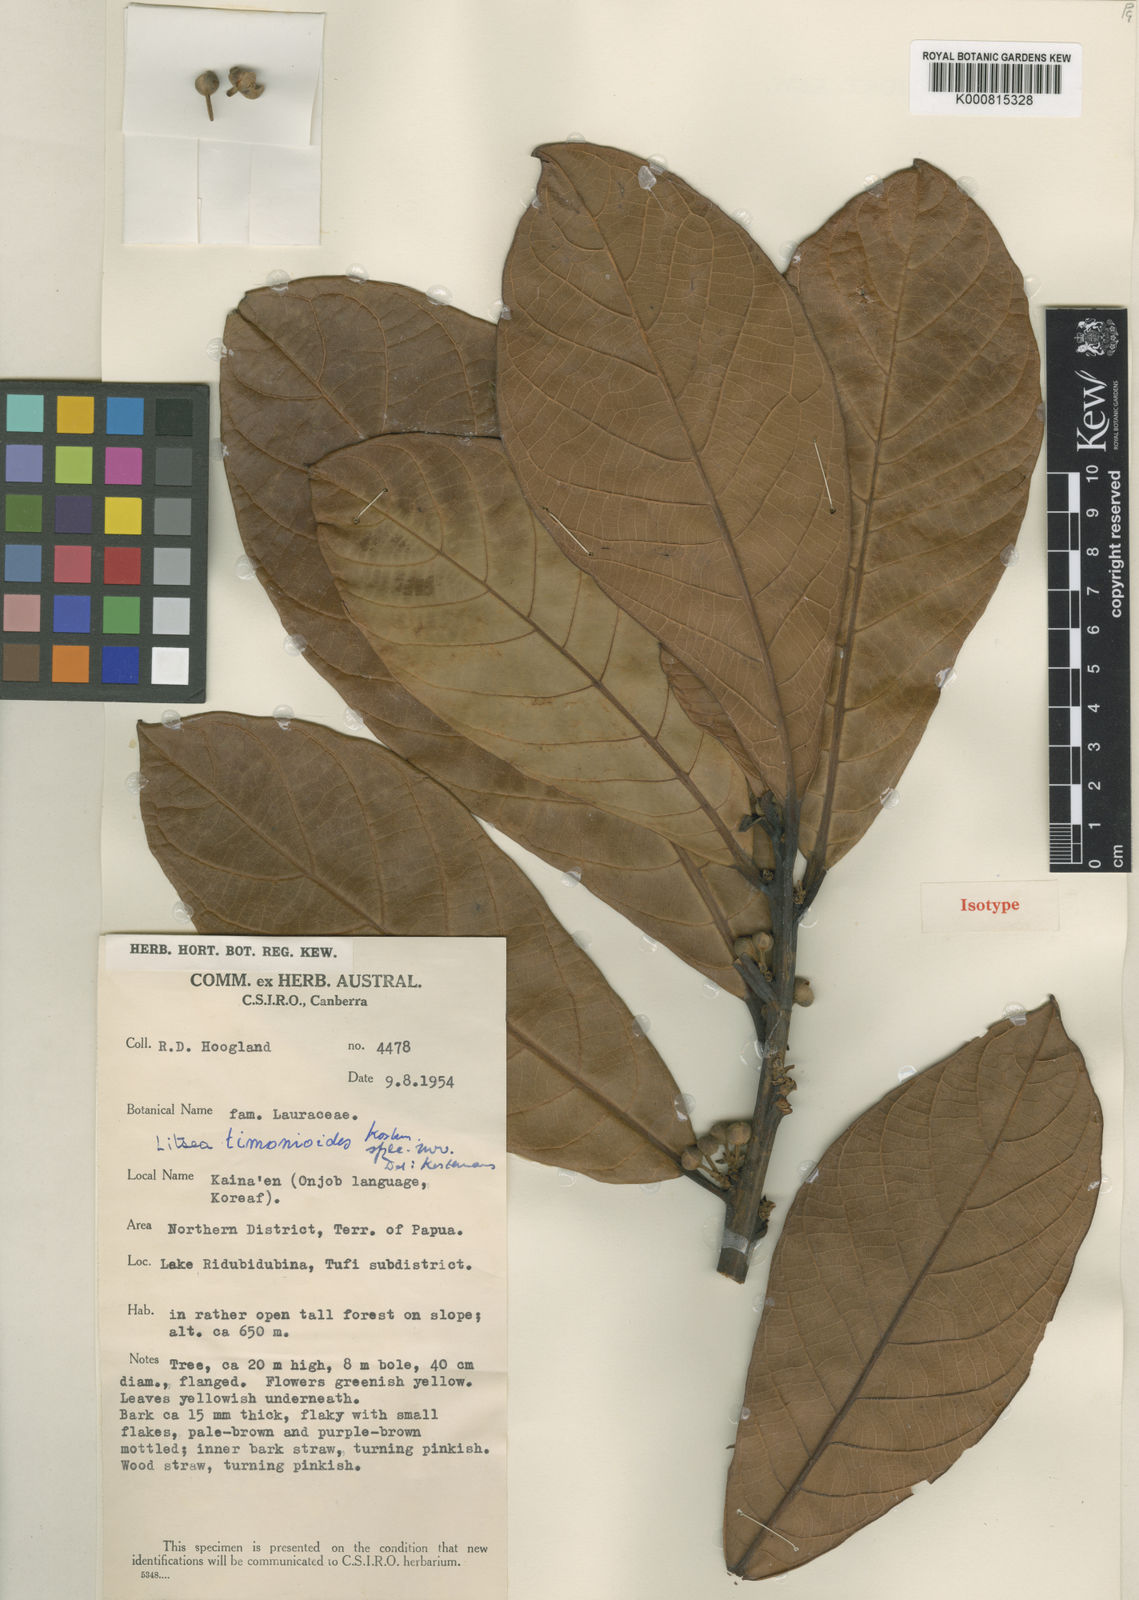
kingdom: Plantae
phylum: Tracheophyta
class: Magnoliopsida
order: Laurales
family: Lauraceae
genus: Litsea
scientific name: Litsea timonioides
